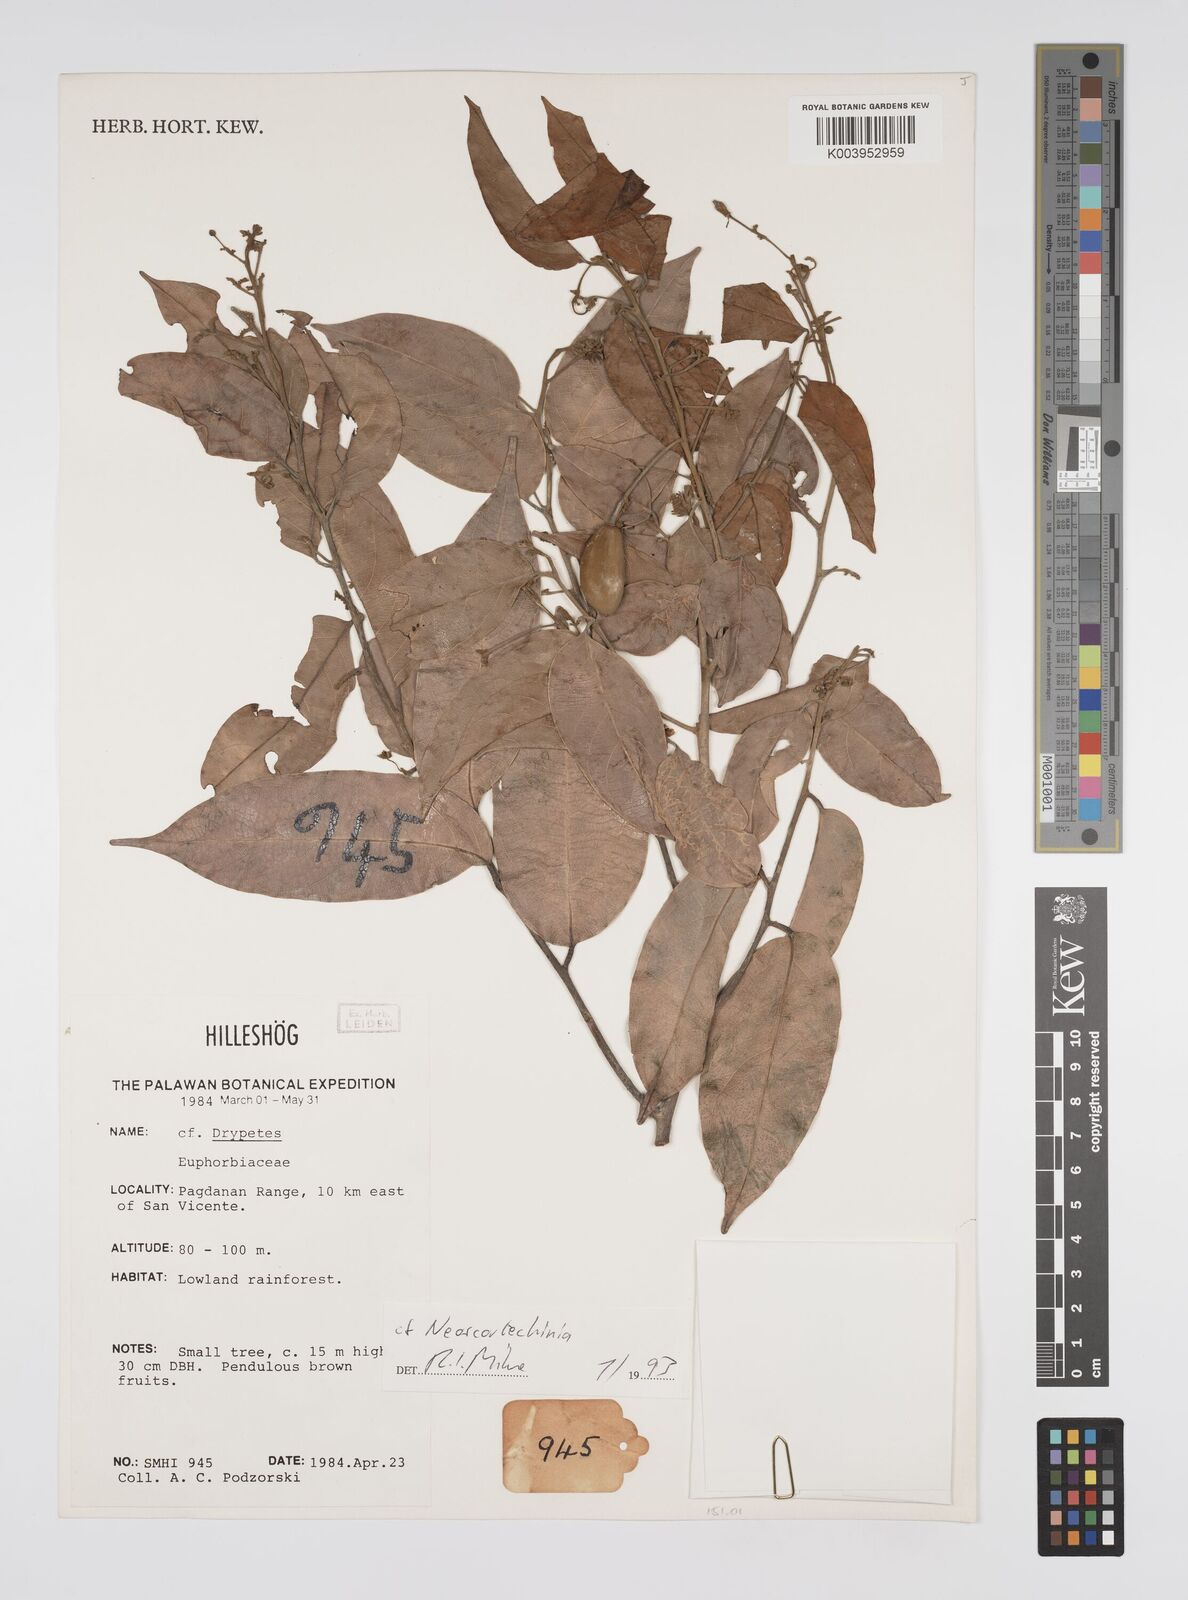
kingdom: Plantae
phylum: Tracheophyta
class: Magnoliopsida
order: Malpighiales
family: Euphorbiaceae
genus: Neoscortechinia
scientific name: Neoscortechinia
